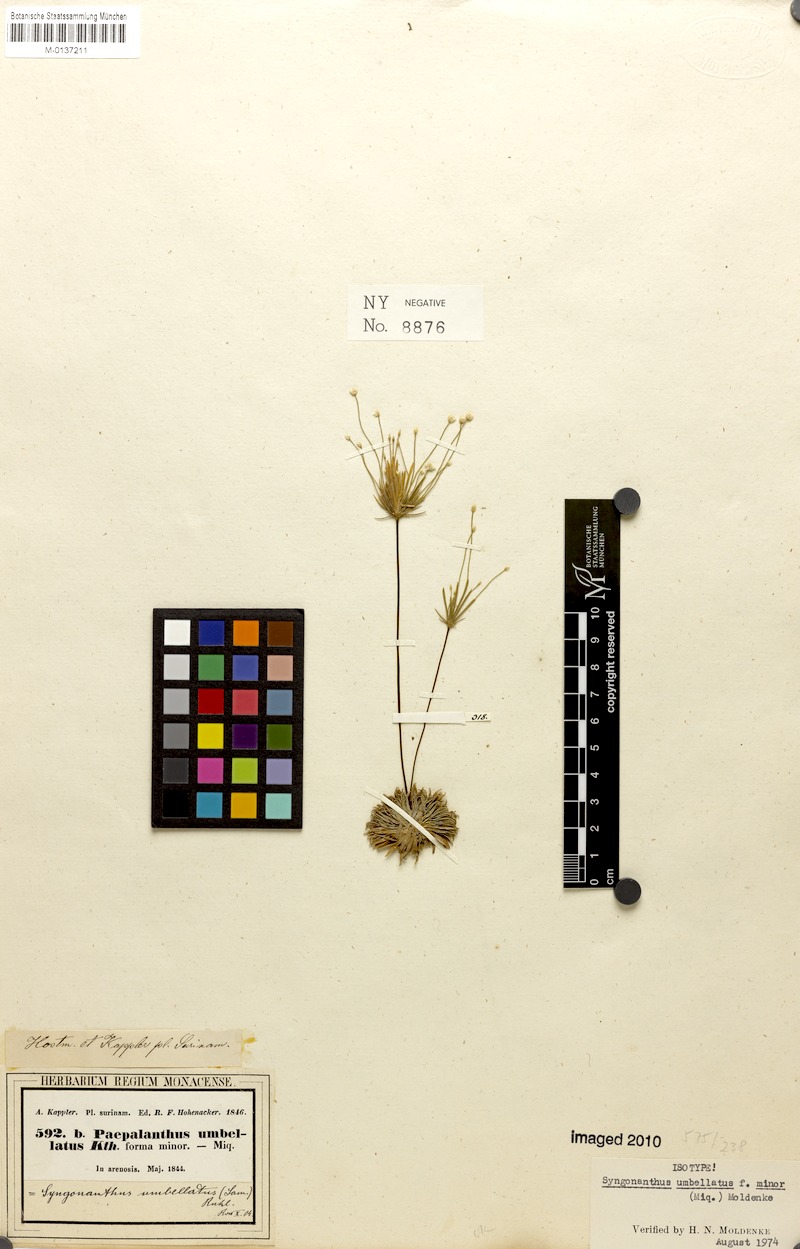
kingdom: Plantae
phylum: Tracheophyta
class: Liliopsida
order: Poales
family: Eriocaulaceae
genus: Syngonanthus
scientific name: Syngonanthus umbellatus
